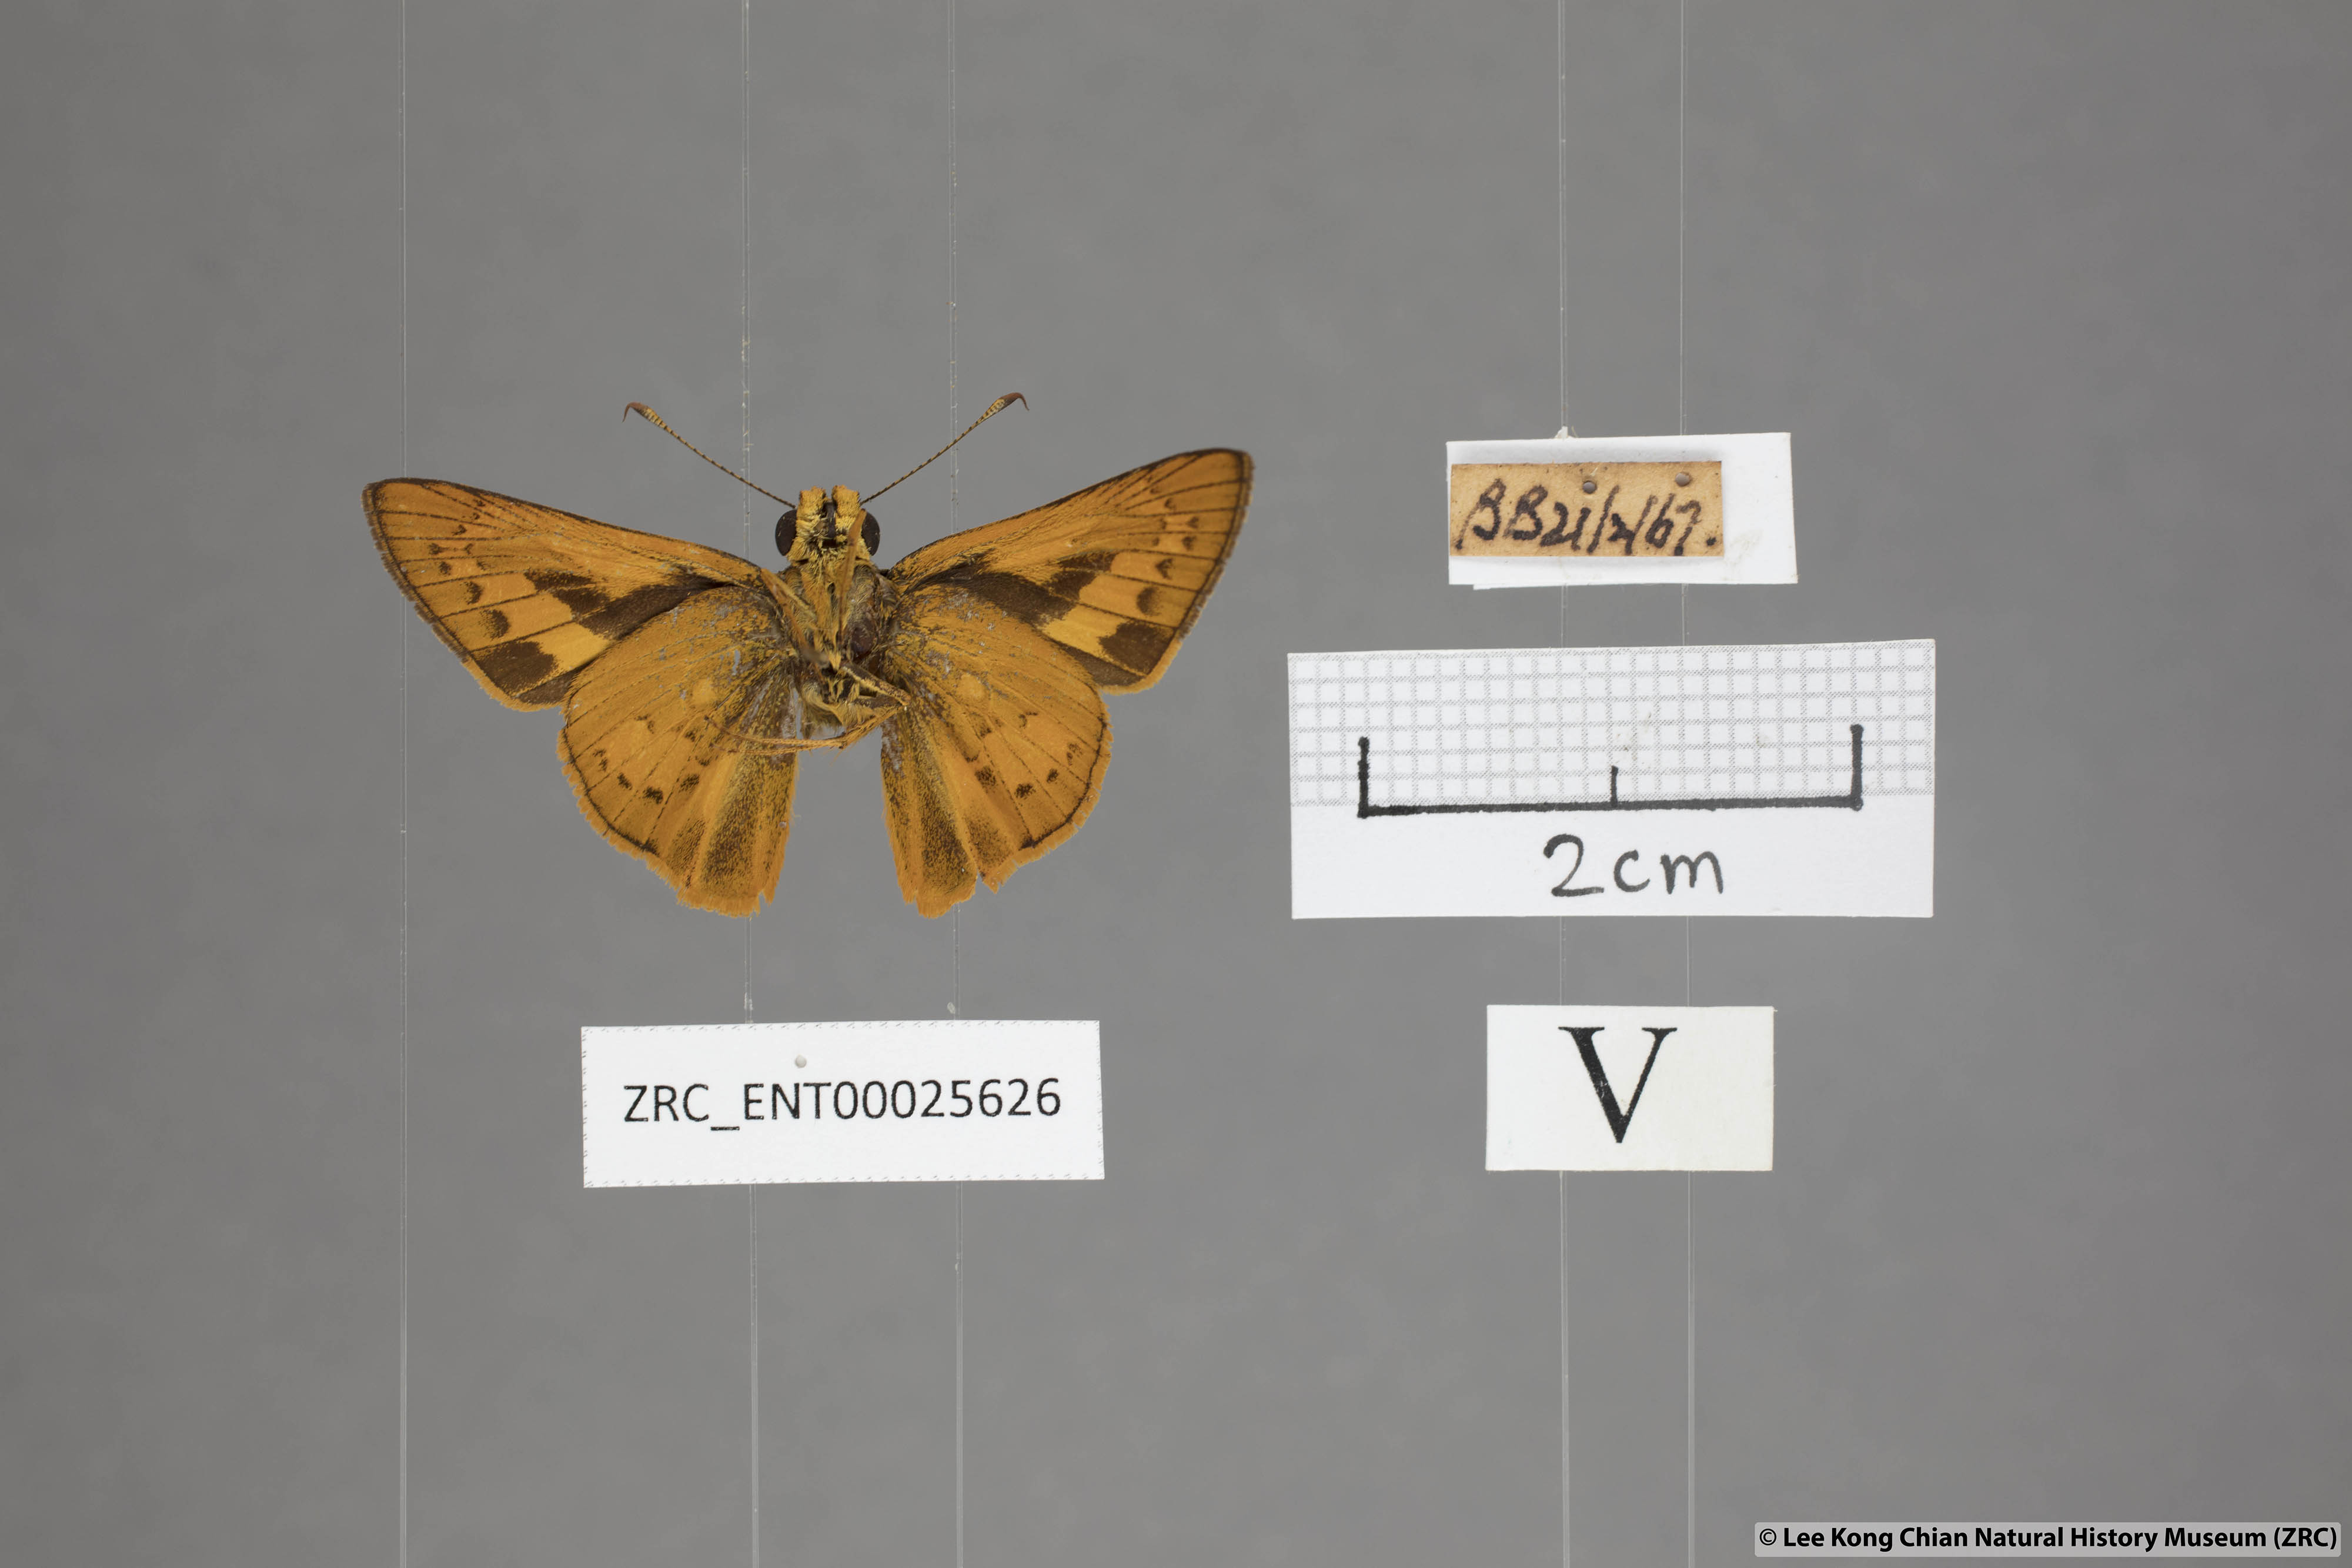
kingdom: Animalia
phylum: Arthropoda
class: Insecta
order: Lepidoptera
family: Hesperiidae
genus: Telicota
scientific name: Telicota augias
